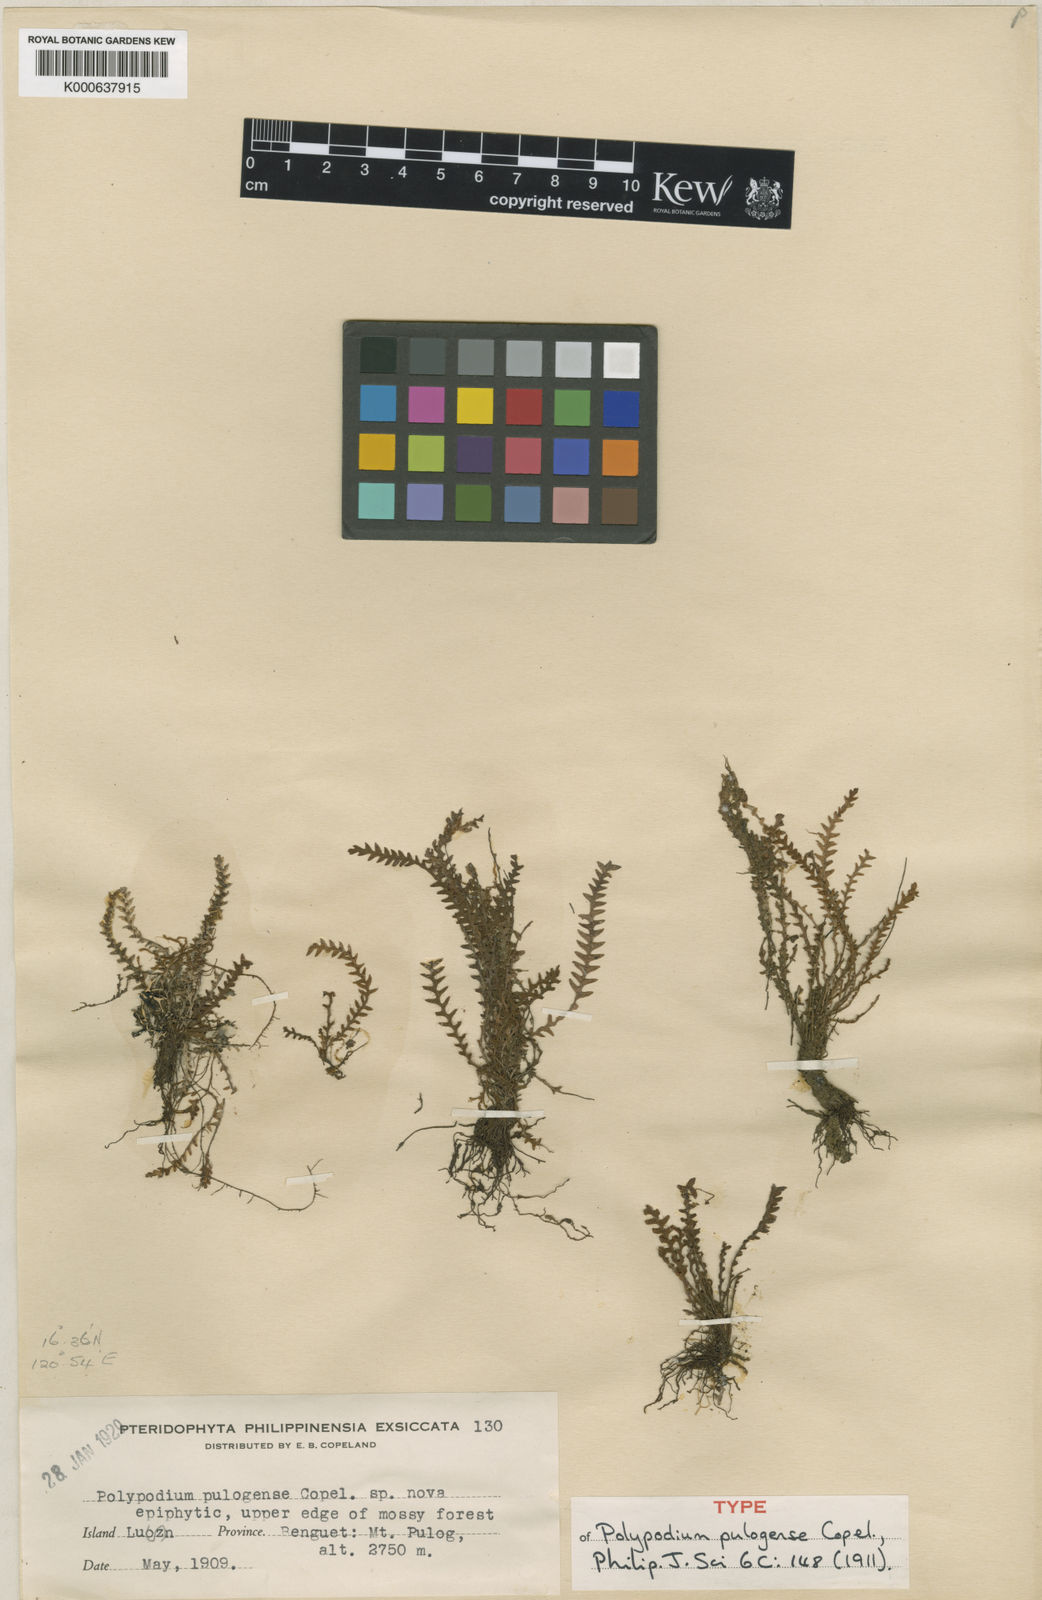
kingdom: Plantae
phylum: Tracheophyta
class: Polypodiopsida
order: Polypodiales
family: Polypodiaceae
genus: Micropolypodium
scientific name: Micropolypodium pulogense
